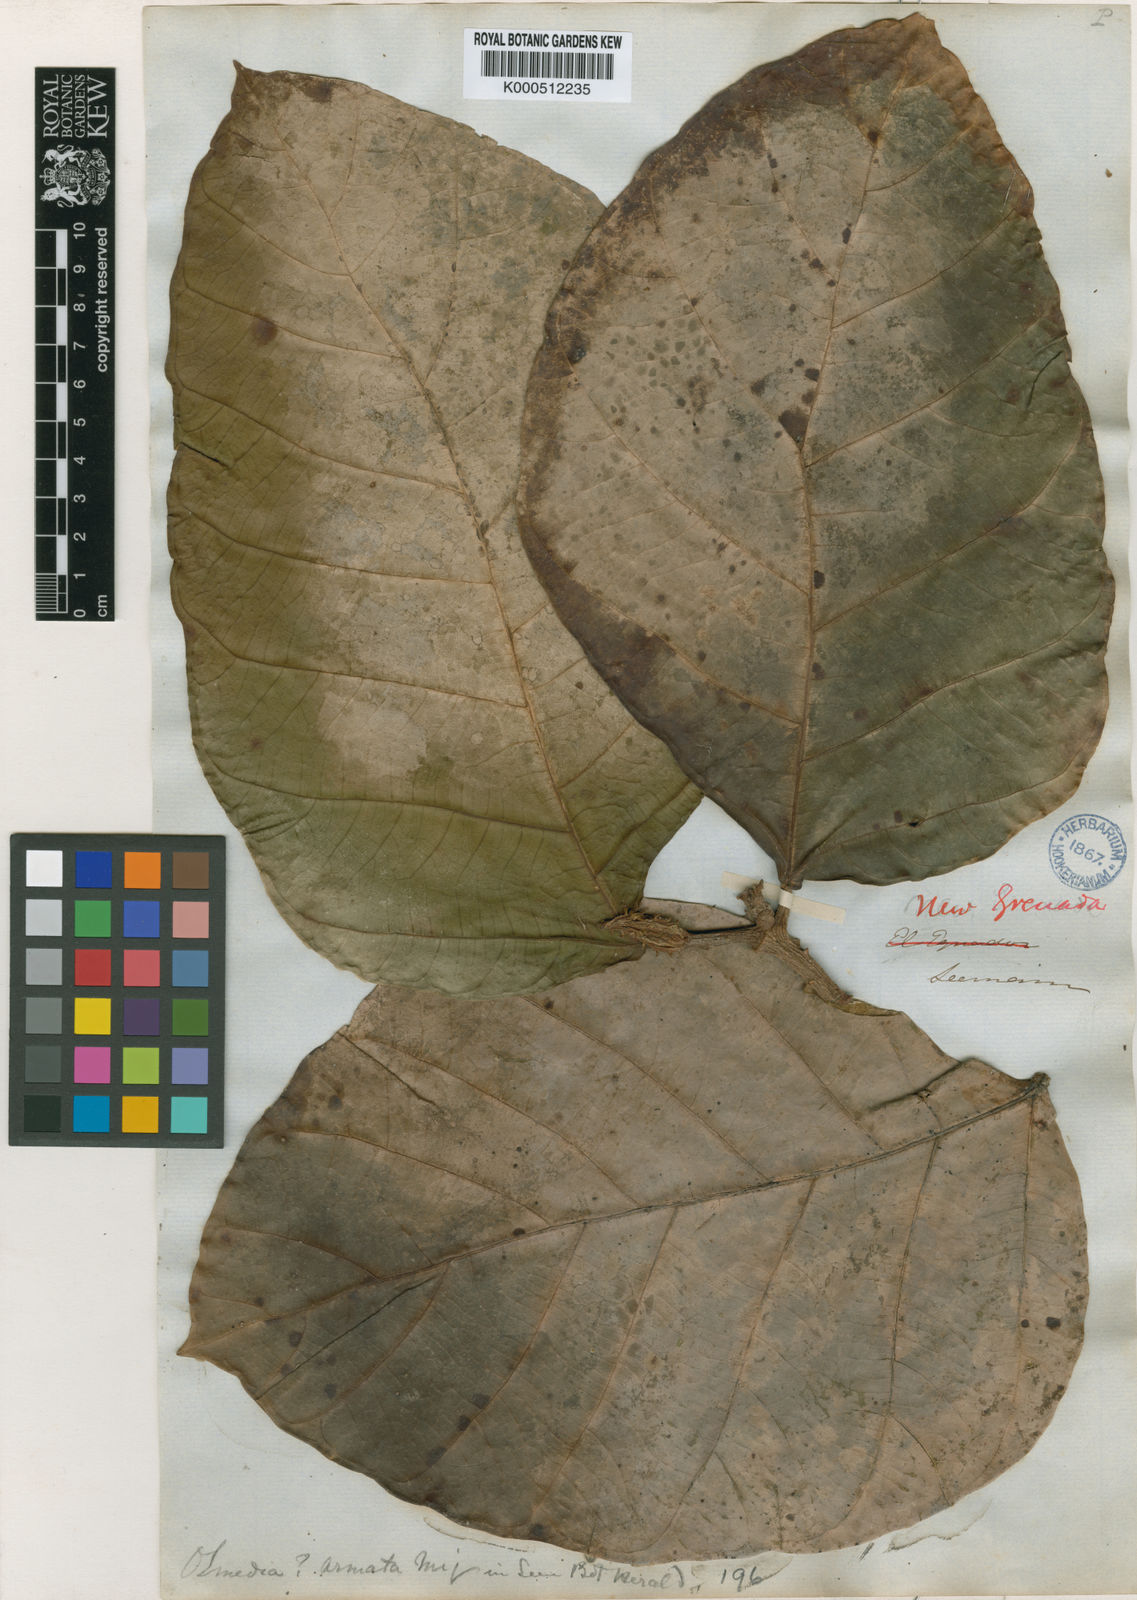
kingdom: Plantae
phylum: Tracheophyta
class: Magnoliopsida
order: Rosales
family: Moraceae
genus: Poulsenia
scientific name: Poulsenia armata
